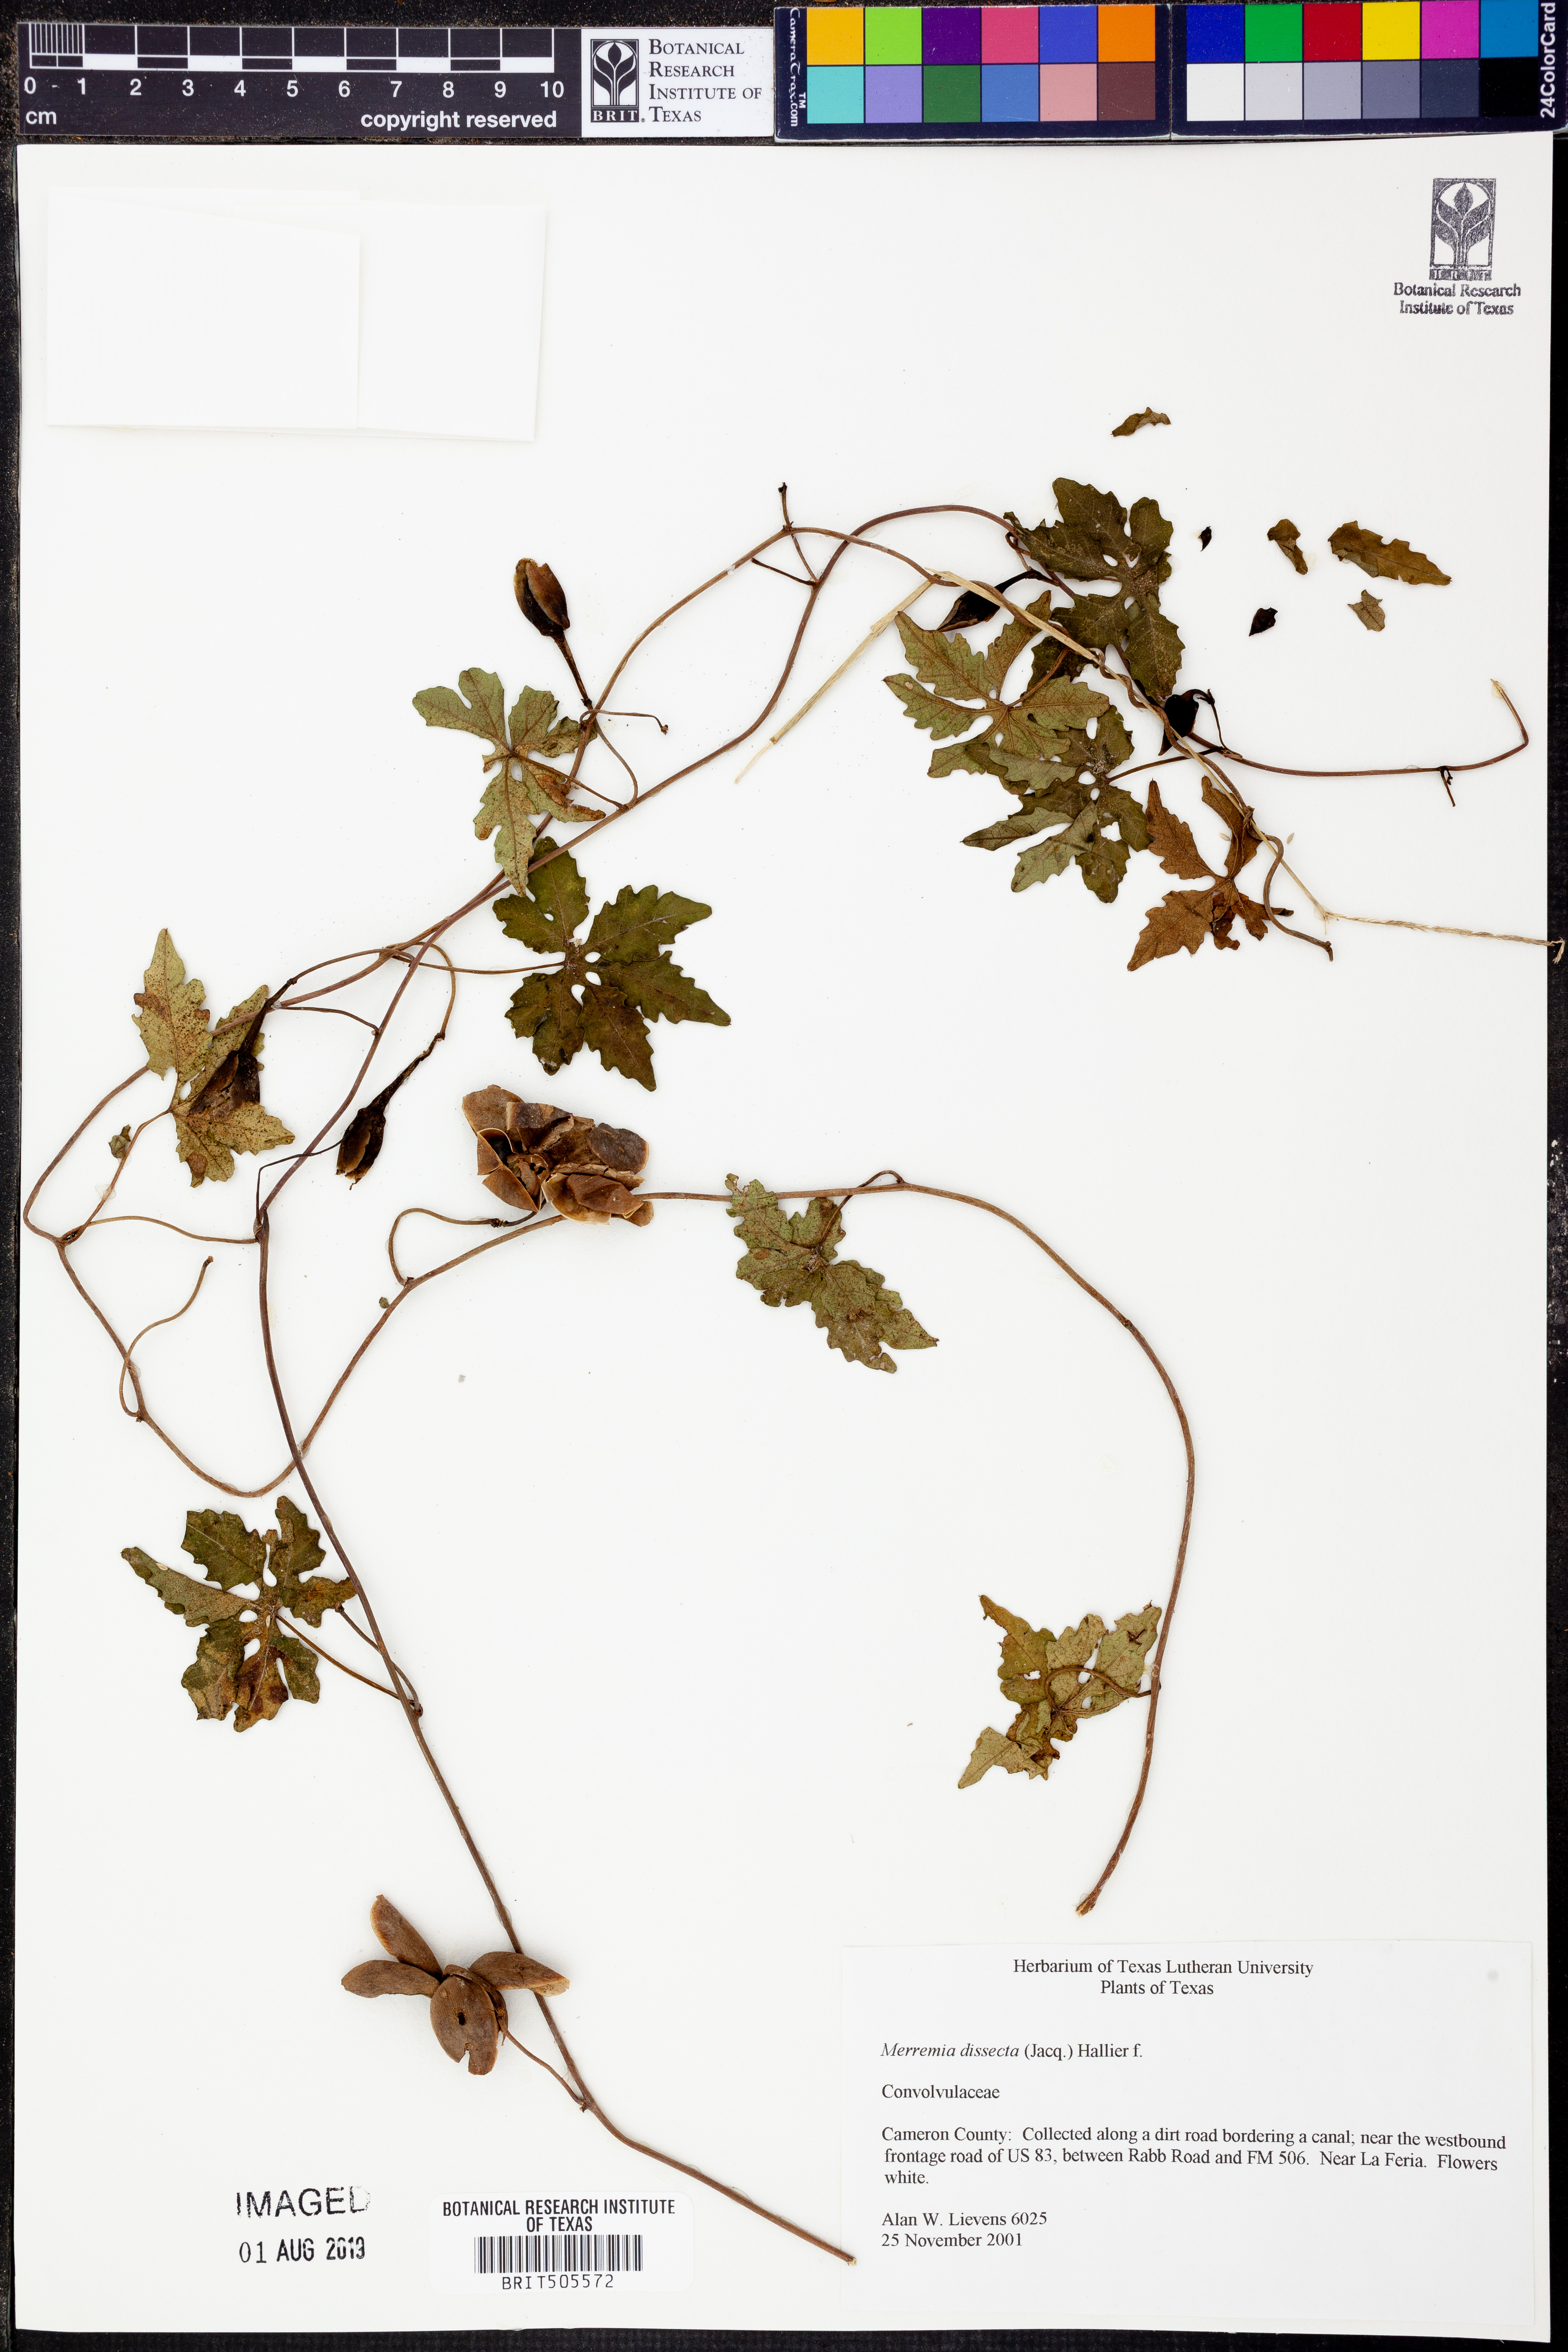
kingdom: Plantae
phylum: Tracheophyta
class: Magnoliopsida
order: Solanales
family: Convolvulaceae
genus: Distimake
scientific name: Distimake dissectus
